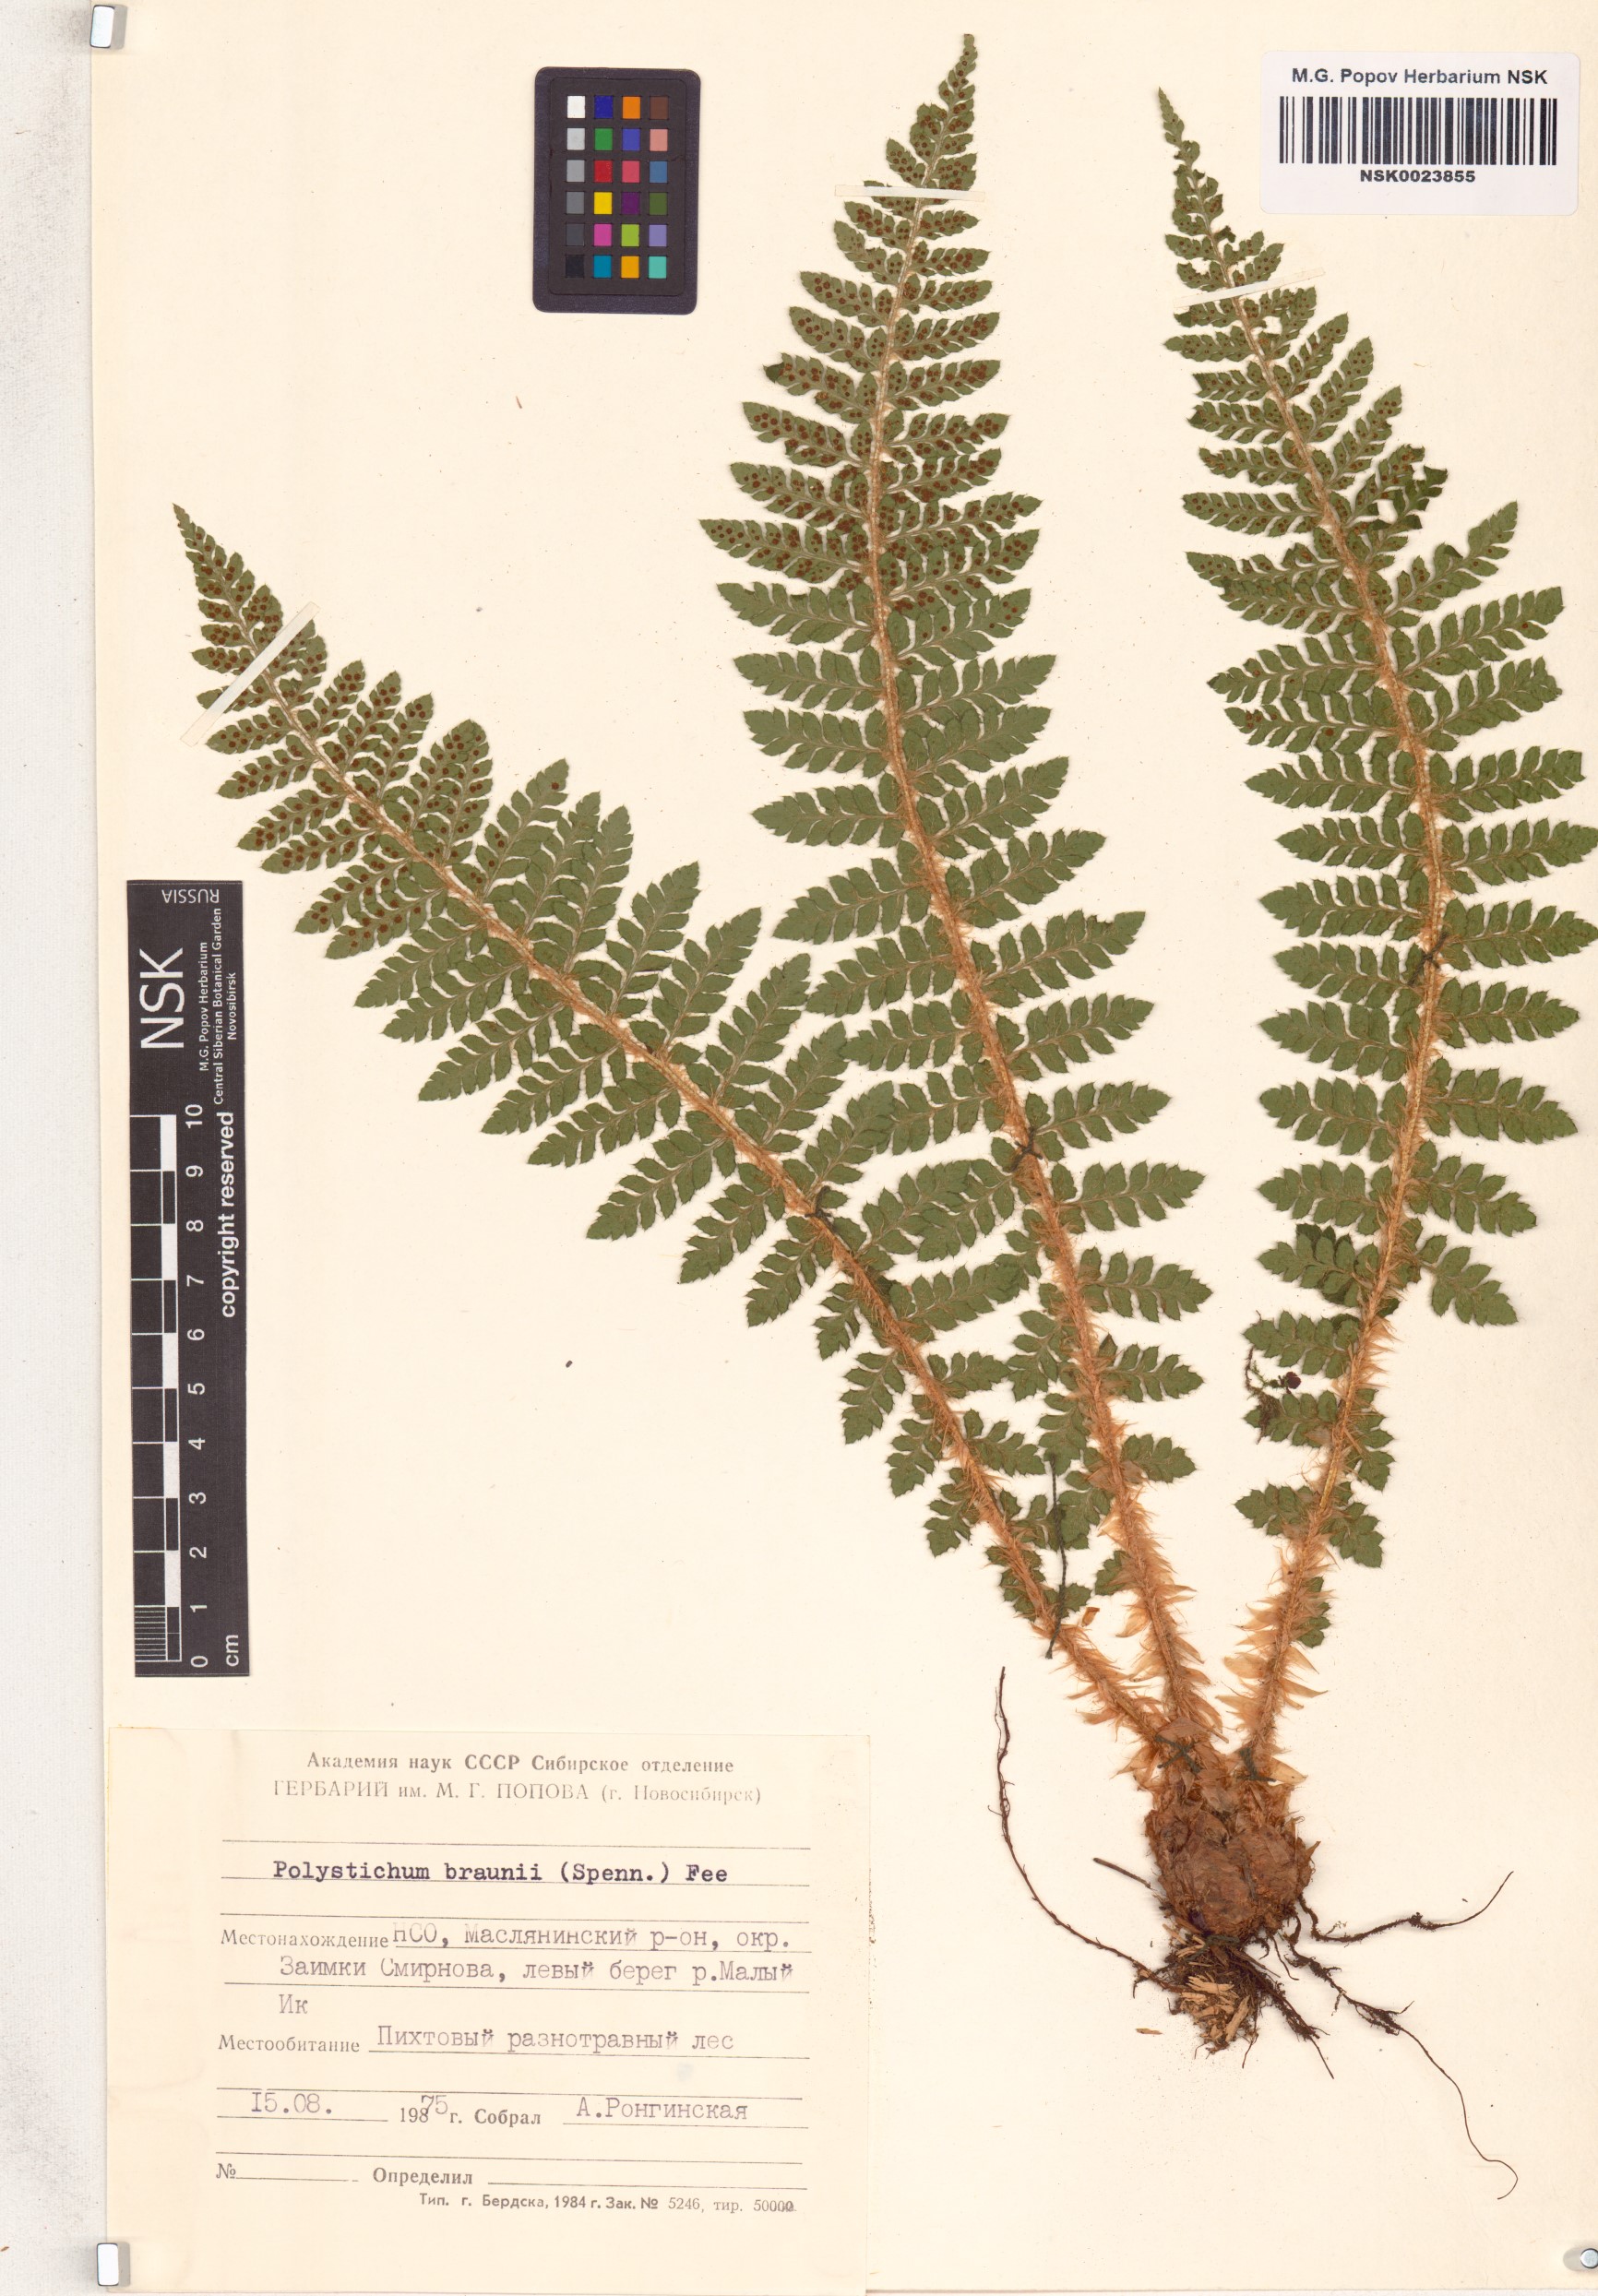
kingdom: Plantae
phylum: Tracheophyta
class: Polypodiopsida
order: Polypodiales
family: Dryopteridaceae
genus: Polystichum
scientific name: Polystichum braunii
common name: Braun's holly fern
